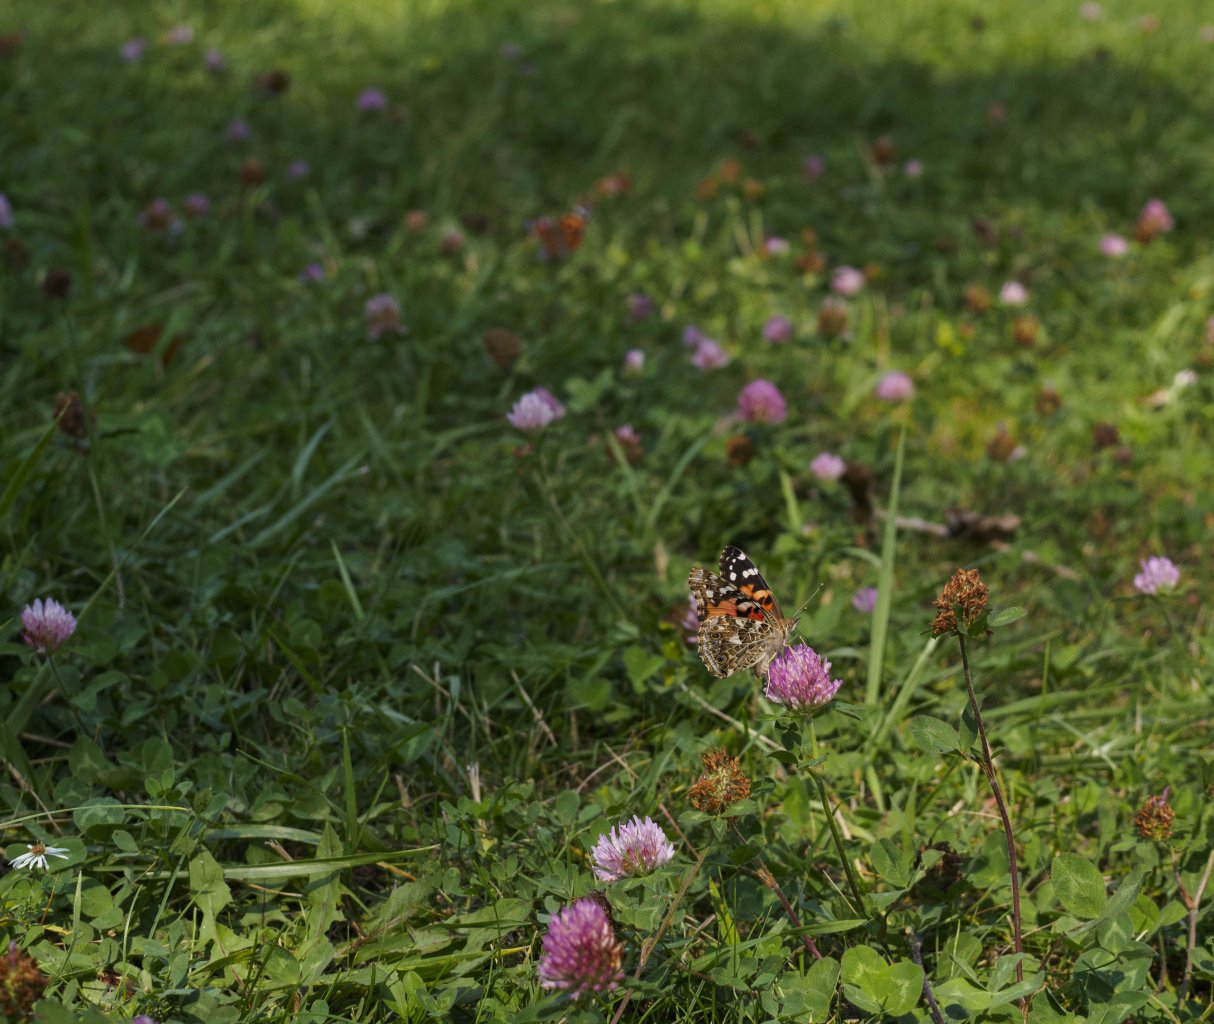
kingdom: Animalia
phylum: Arthropoda
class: Insecta
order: Lepidoptera
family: Nymphalidae
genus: Vanessa
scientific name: Vanessa cardui
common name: Painted Lady
